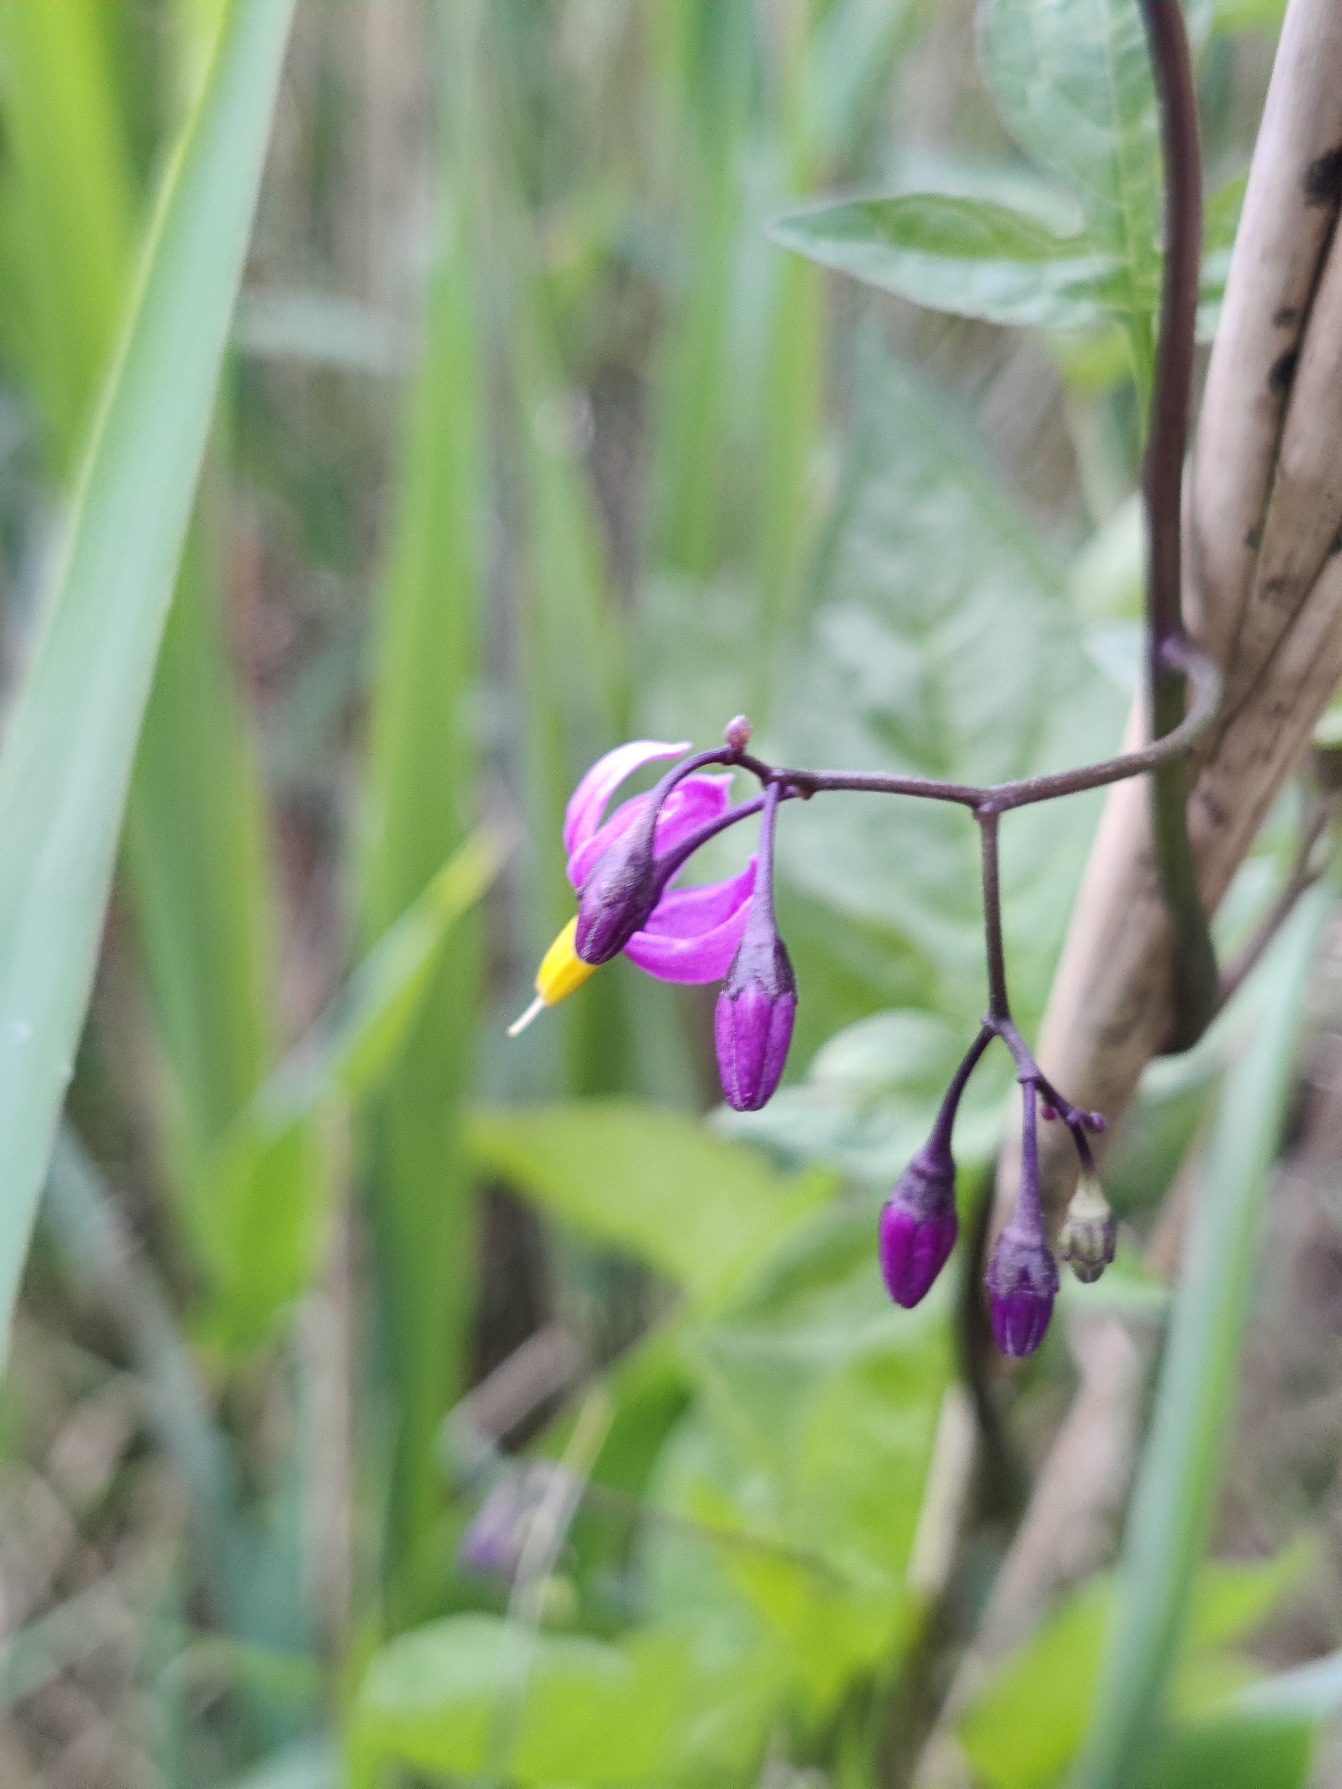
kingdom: Plantae
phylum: Tracheophyta
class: Magnoliopsida
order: Solanales
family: Solanaceae
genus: Solanum
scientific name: Solanum dulcamara
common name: Bittersød natskygge
